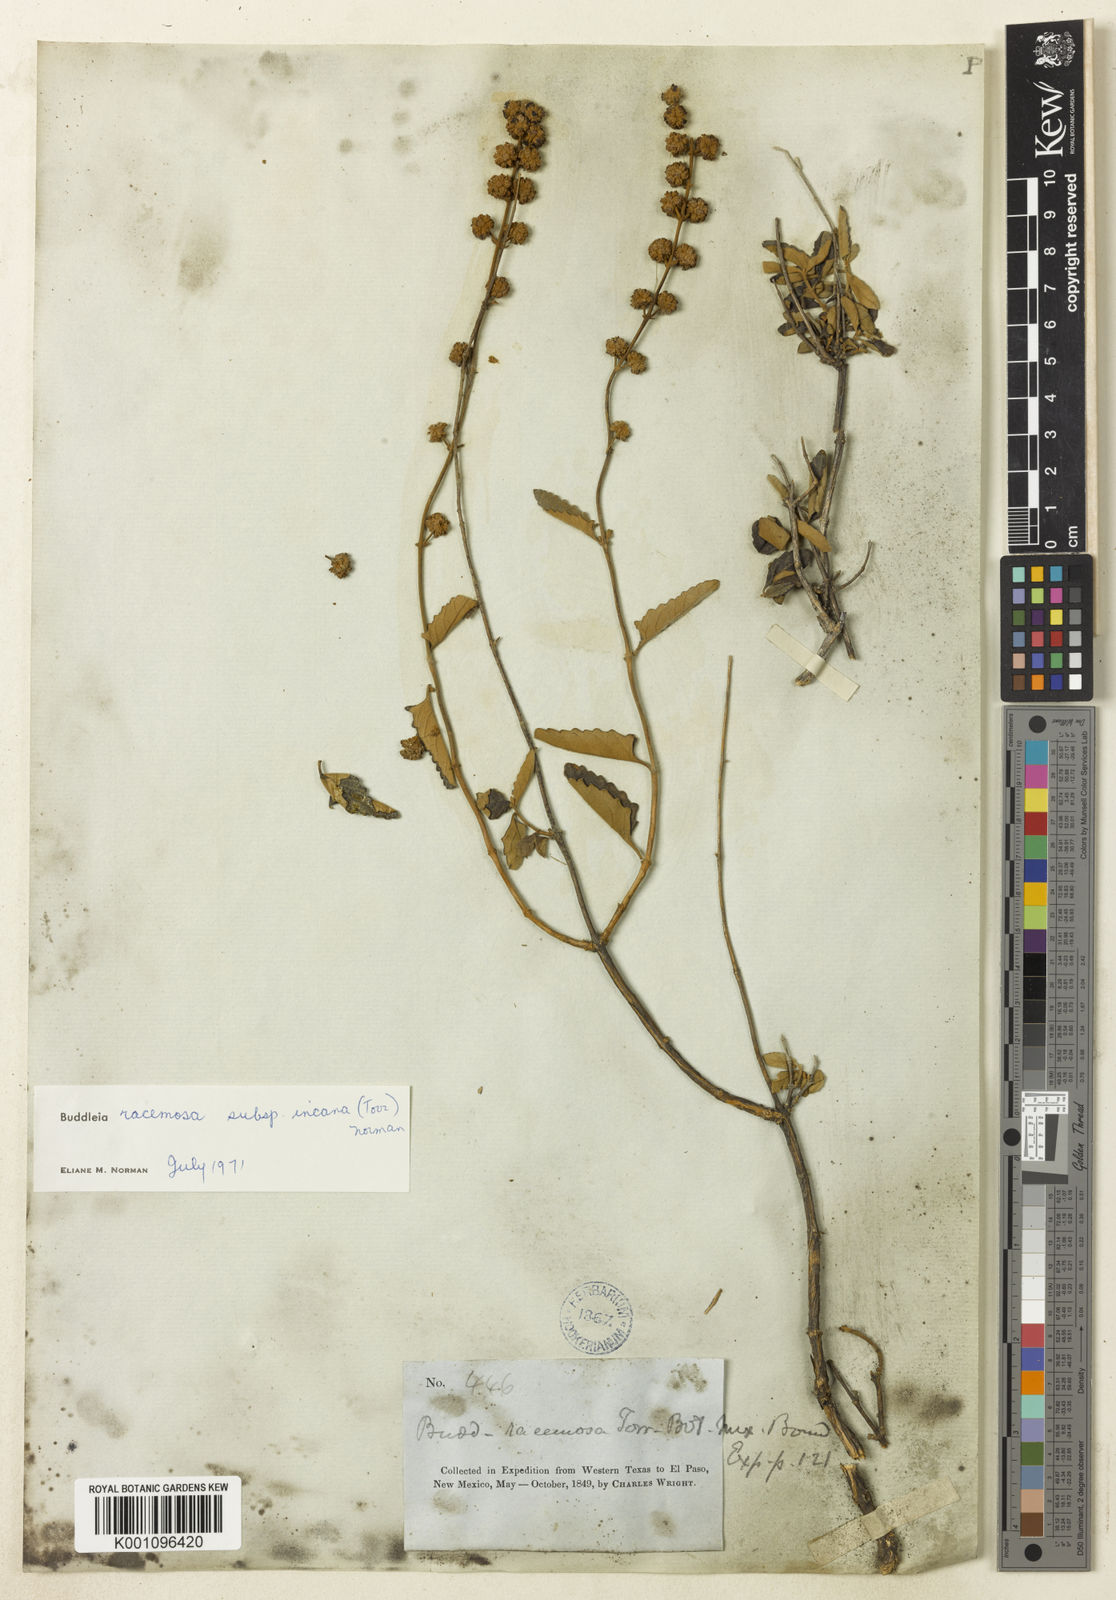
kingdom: Plantae
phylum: Tracheophyta
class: Magnoliopsida
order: Lamiales
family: Scrophulariaceae
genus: Buddleja
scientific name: Buddleja racemosa
